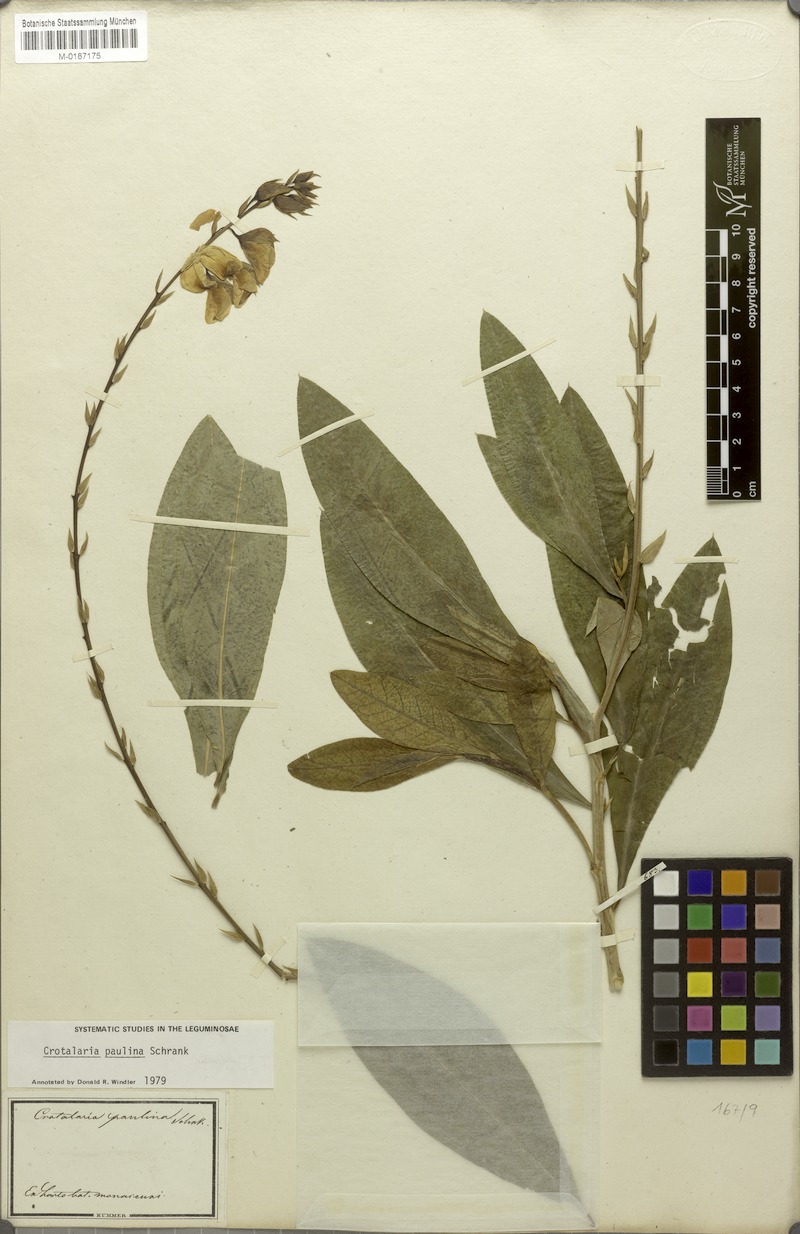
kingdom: Plantae
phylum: Tracheophyta
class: Magnoliopsida
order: Fabales
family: Fabaceae
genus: Crotalaria
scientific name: Crotalaria paulina
